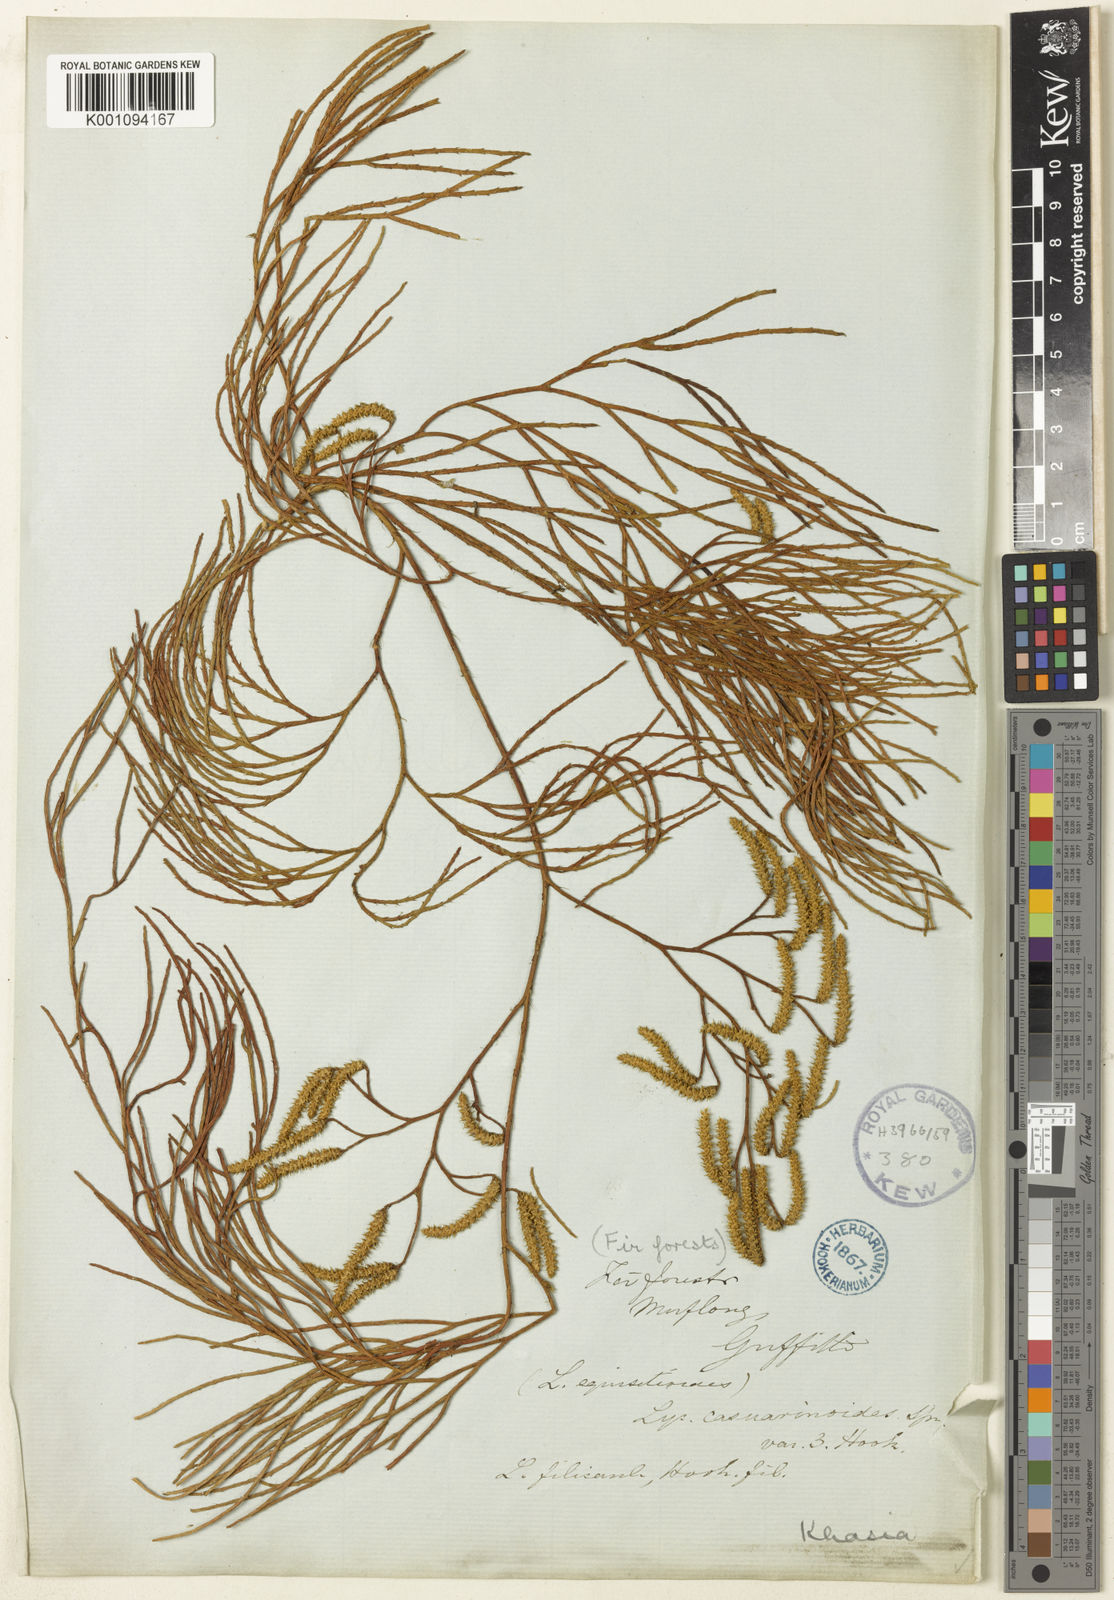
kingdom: Plantae
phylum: Tracheophyta
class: Lycopodiopsida
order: Lycopodiales
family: Lycopodiaceae
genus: Lycopodiastrum
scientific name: Lycopodiastrum casuarinoides
